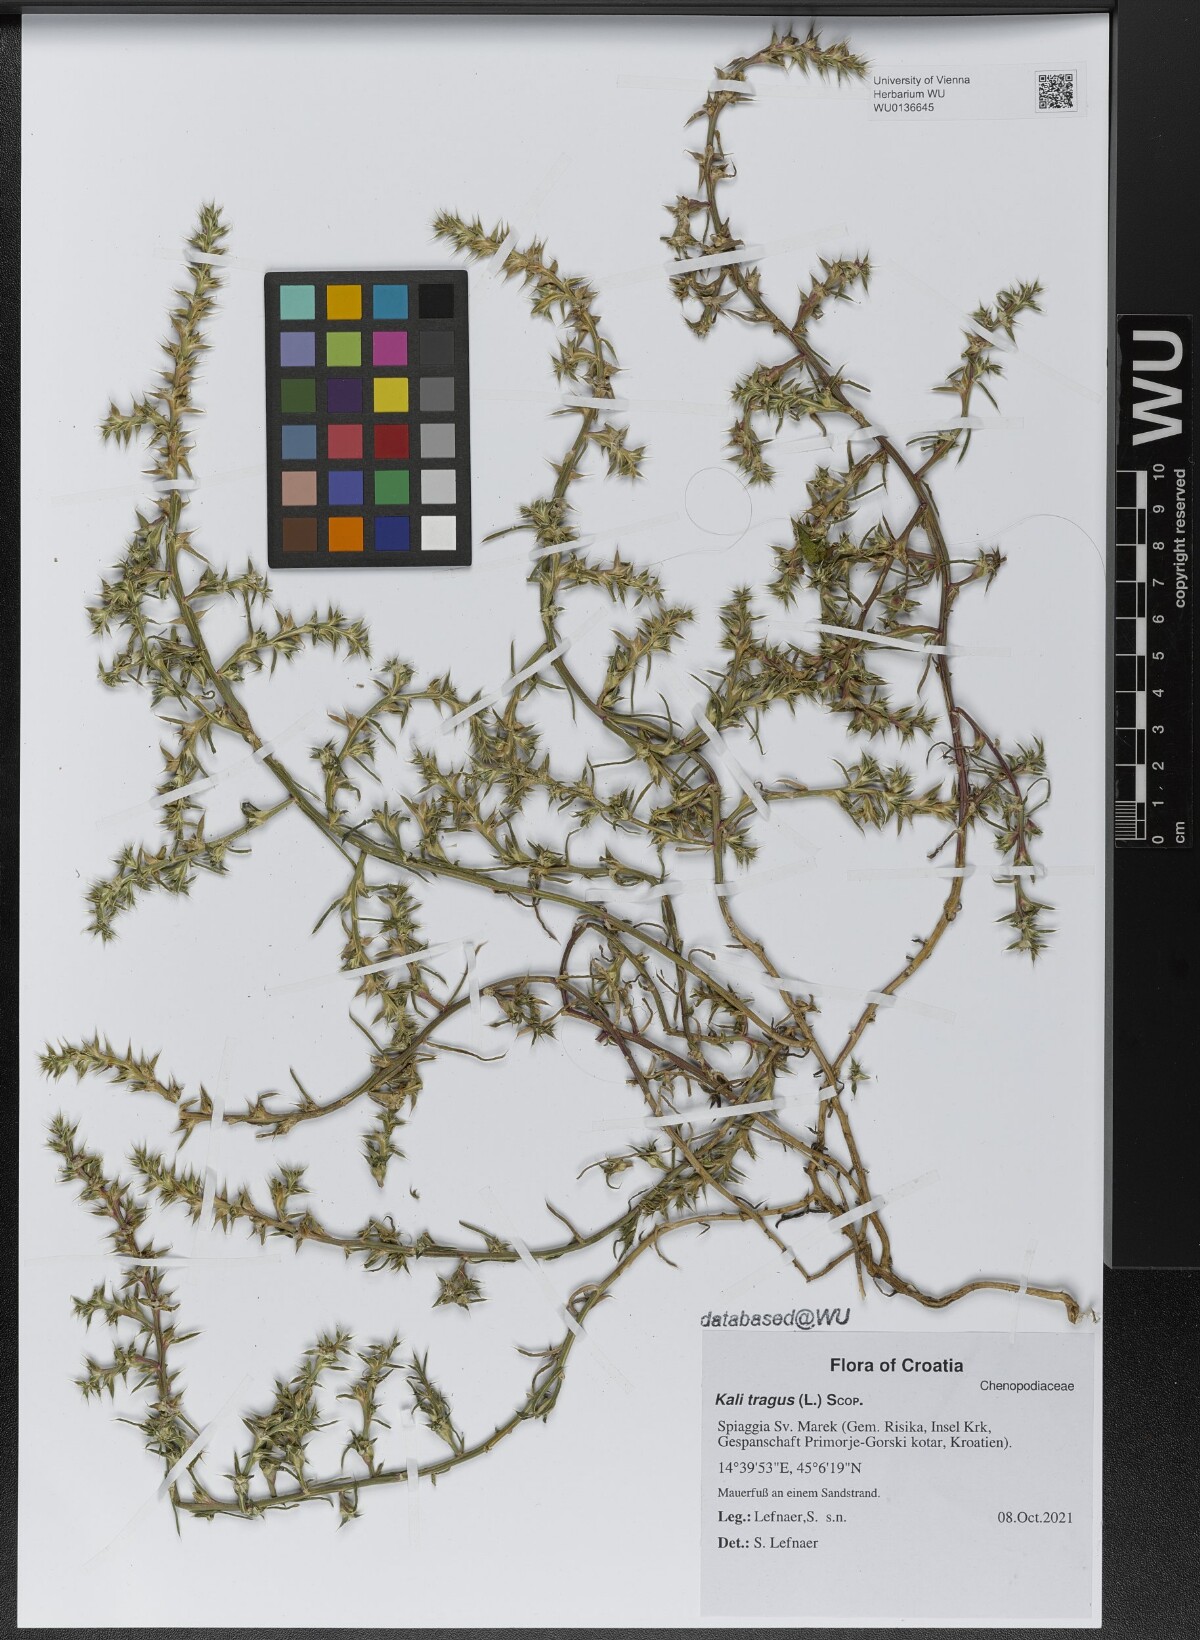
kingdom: Plantae
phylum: Tracheophyta
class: Magnoliopsida
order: Caryophyllales
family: Amaranthaceae
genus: Salsola
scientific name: Salsola tragus
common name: Prickly russian thistle
